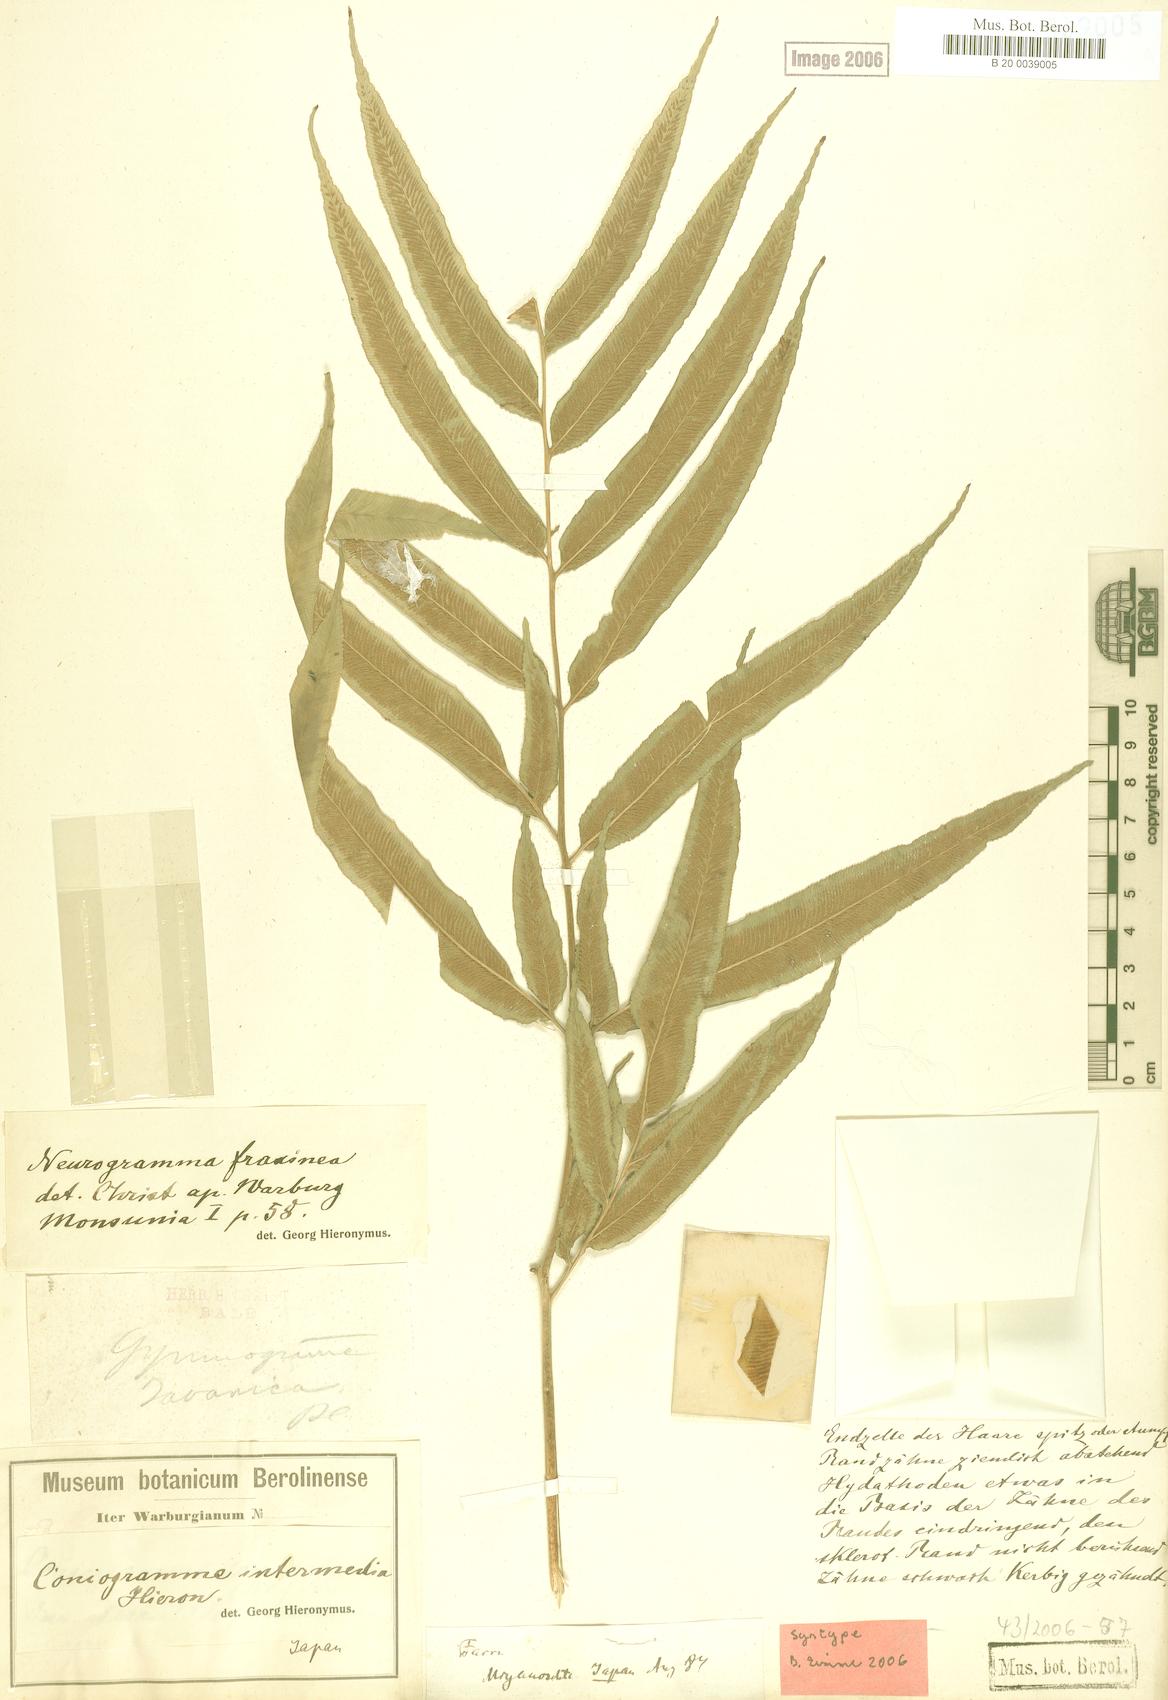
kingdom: Plantae
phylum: Tracheophyta
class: Polypodiopsida
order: Polypodiales
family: Pteridaceae
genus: Coniogramme
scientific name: Coniogramme intermedia
